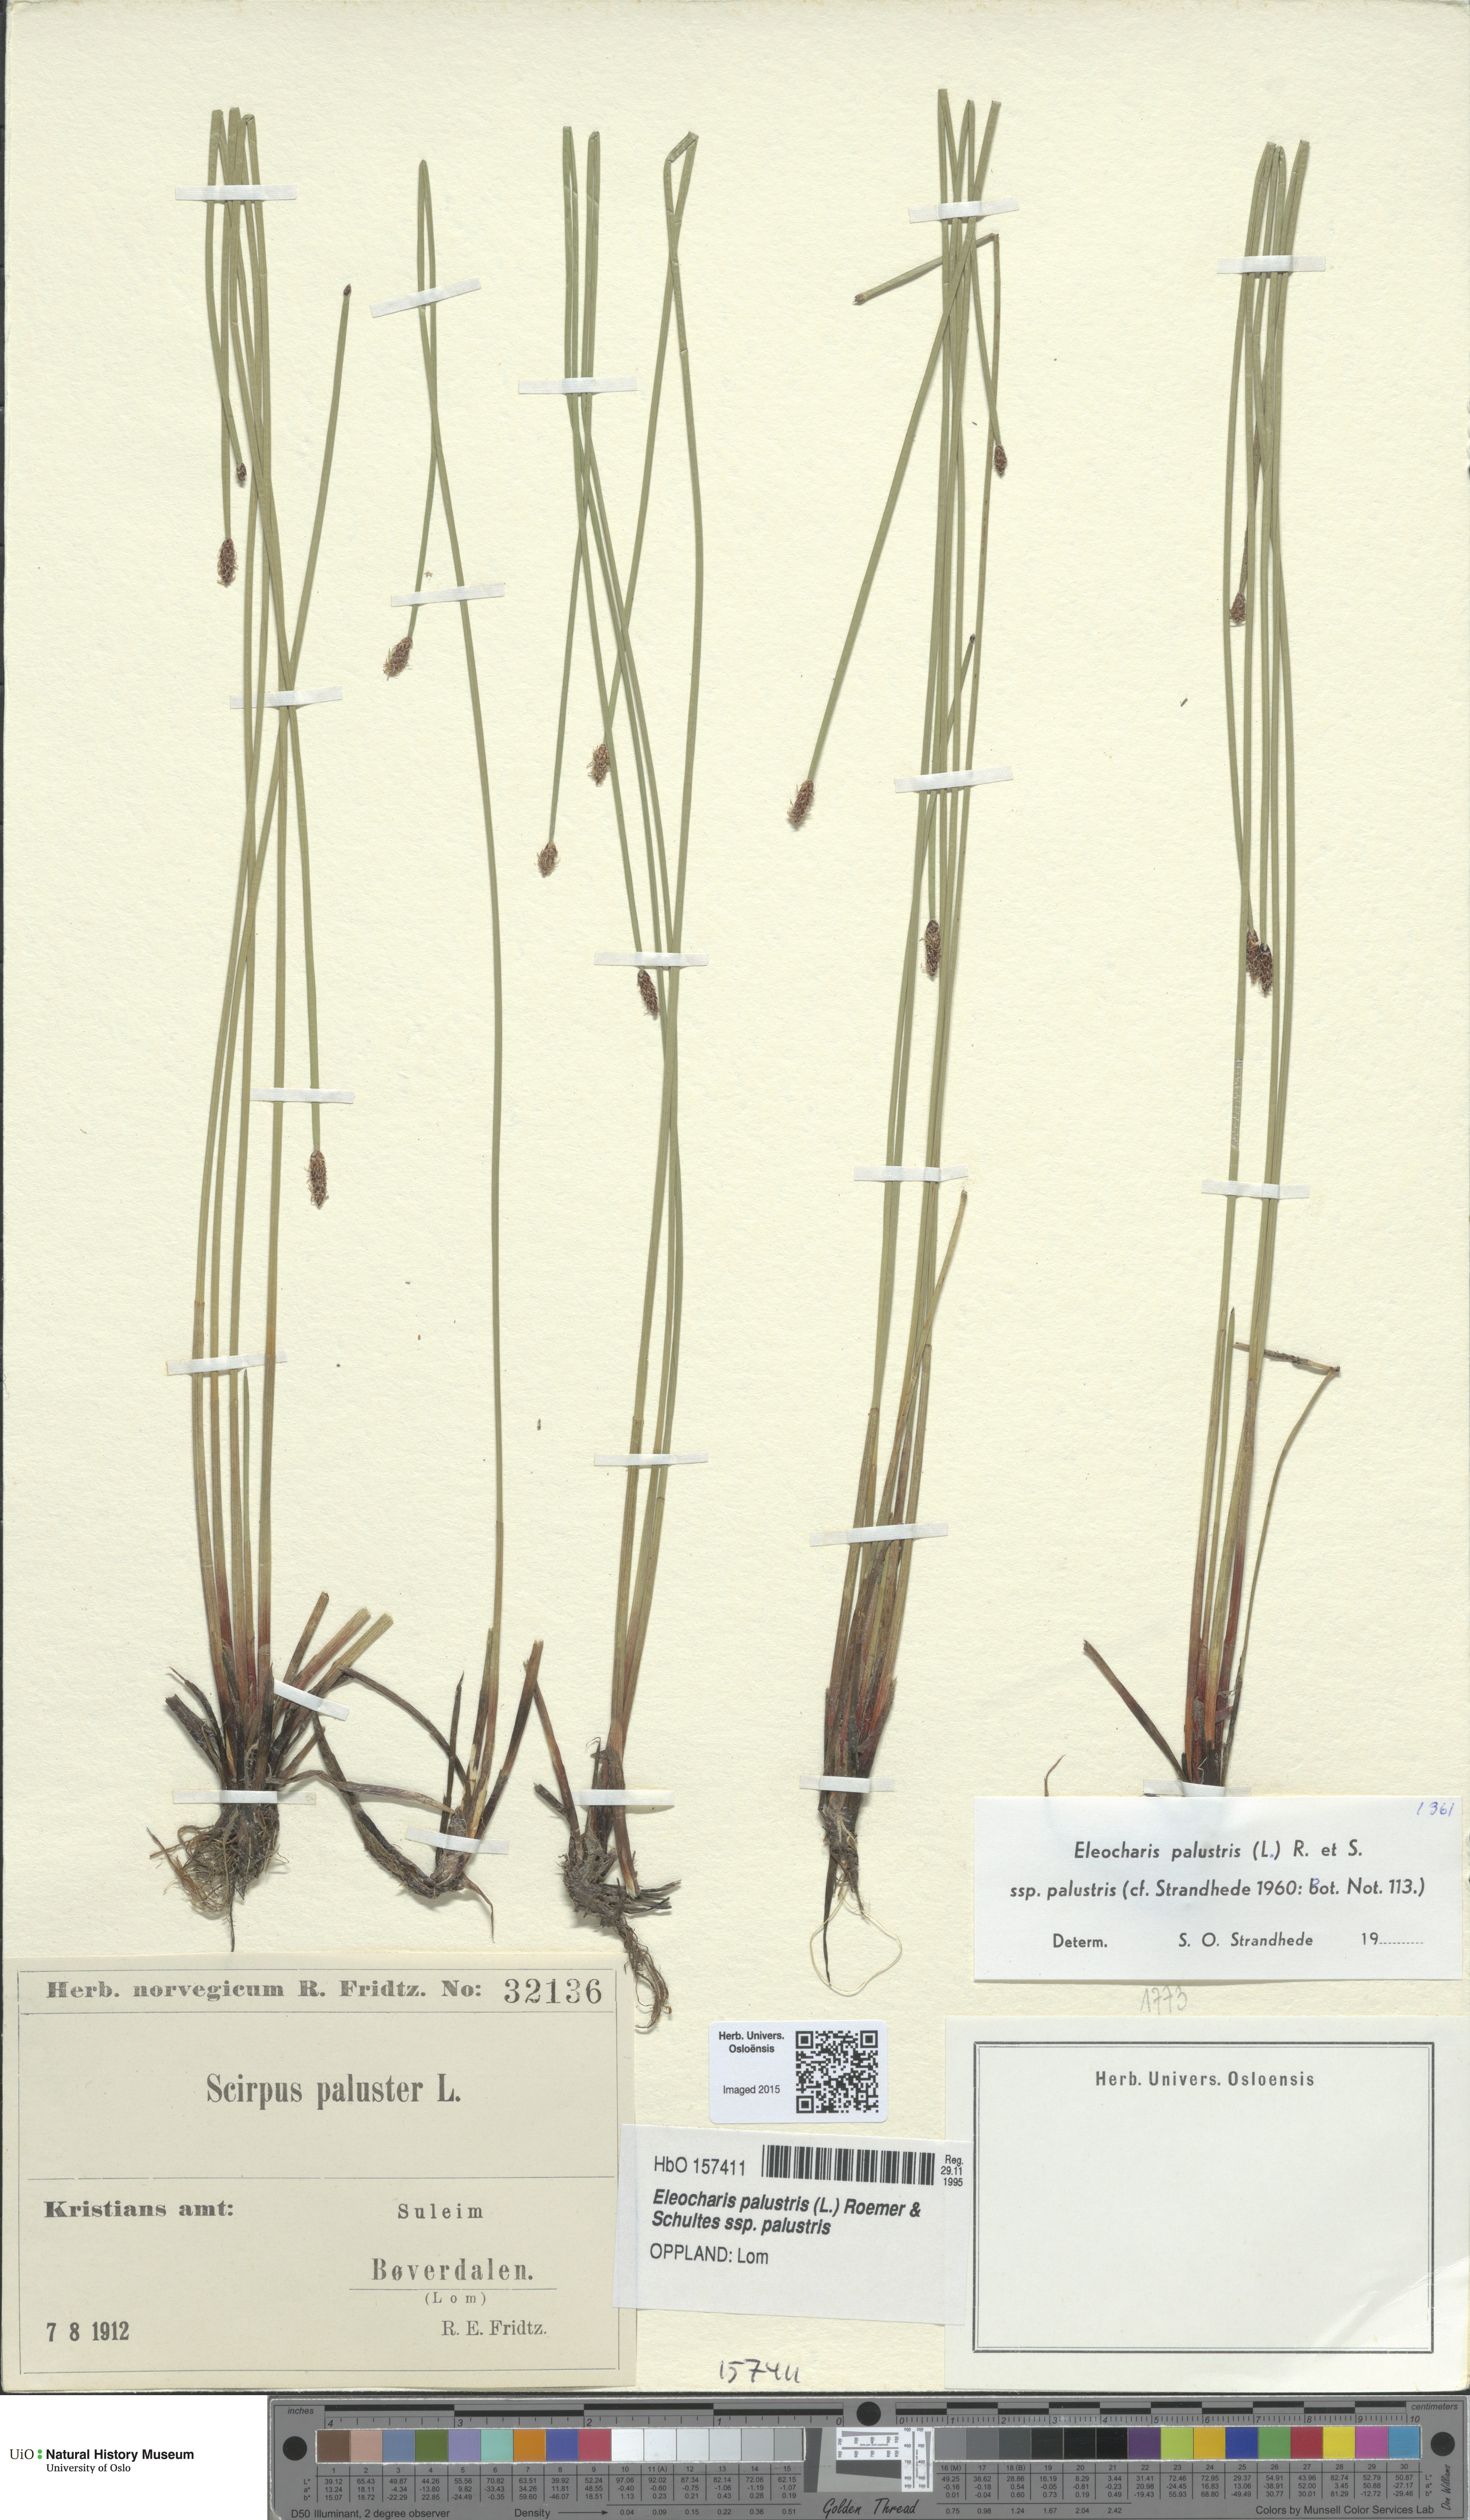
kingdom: Plantae
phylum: Tracheophyta
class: Liliopsida
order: Poales
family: Cyperaceae
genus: Eleocharis
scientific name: Eleocharis palustris
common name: Common spike-rush
